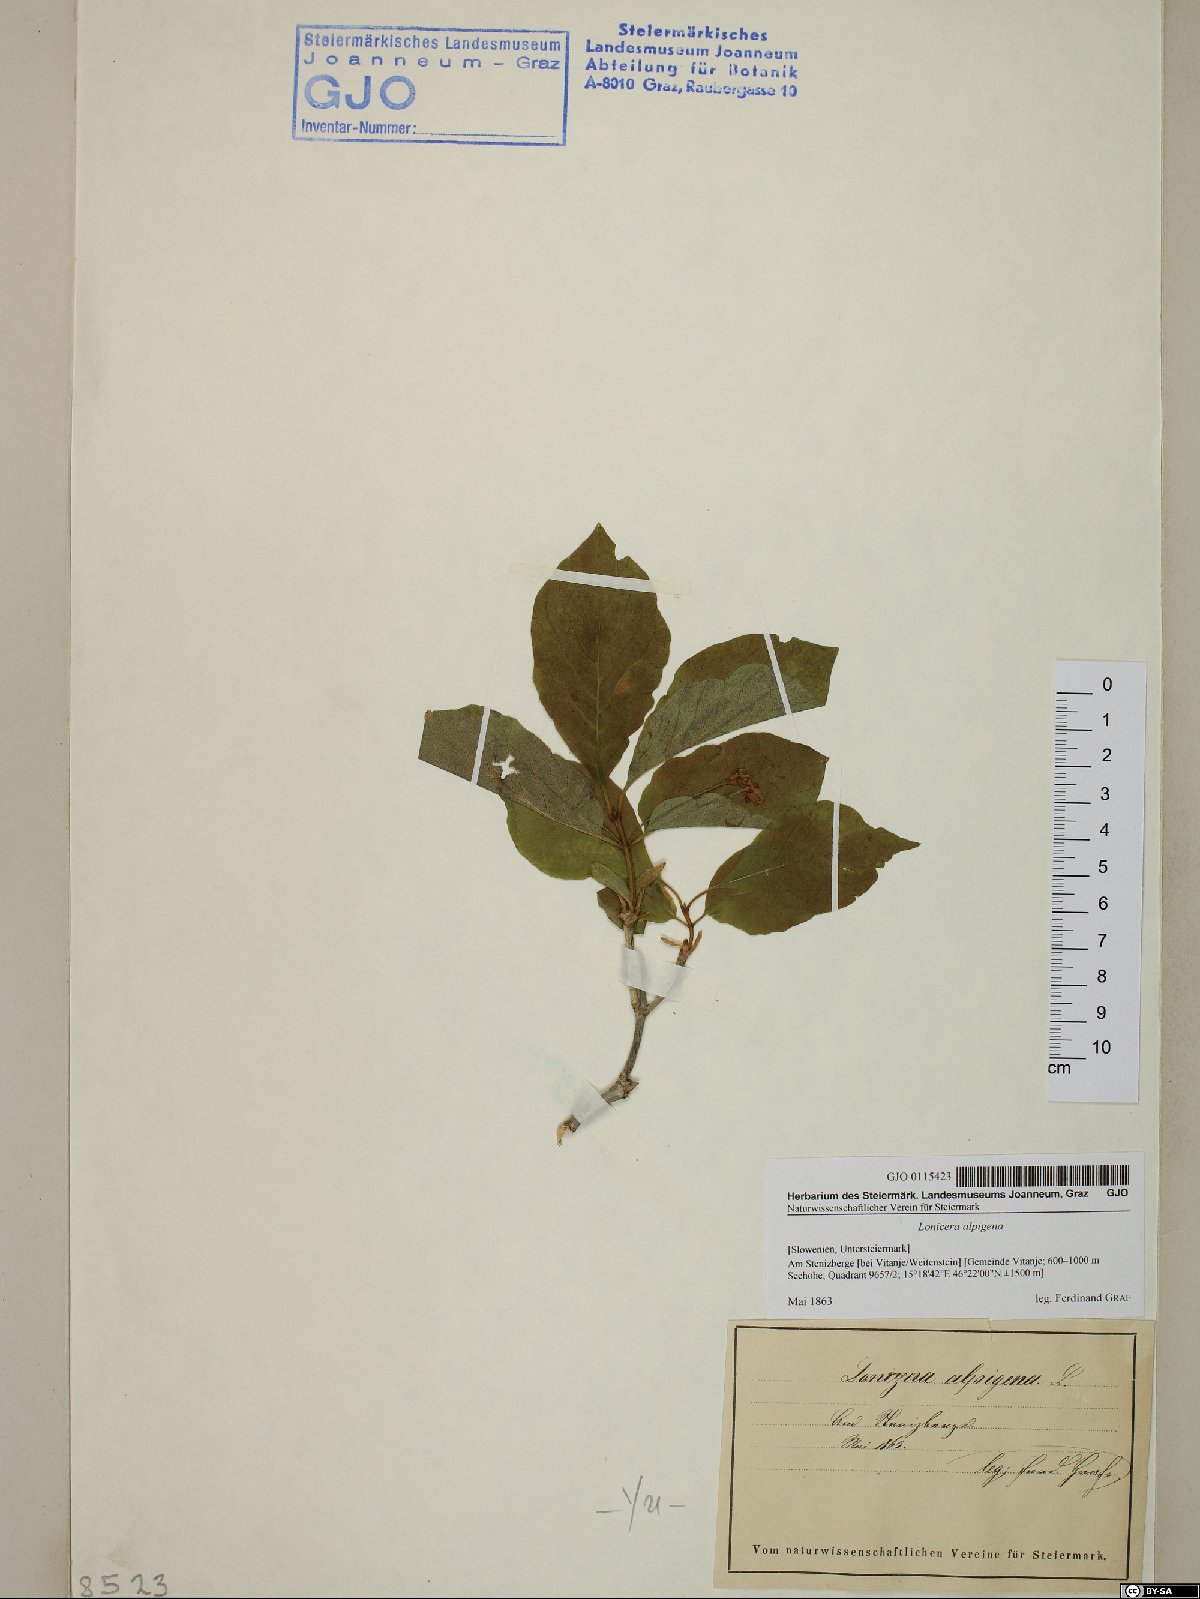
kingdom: Plantae
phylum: Tracheophyta
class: Magnoliopsida
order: Dipsacales
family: Caprifoliaceae
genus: Lonicera
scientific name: Lonicera alpigena
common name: Alpine honeysuckle
